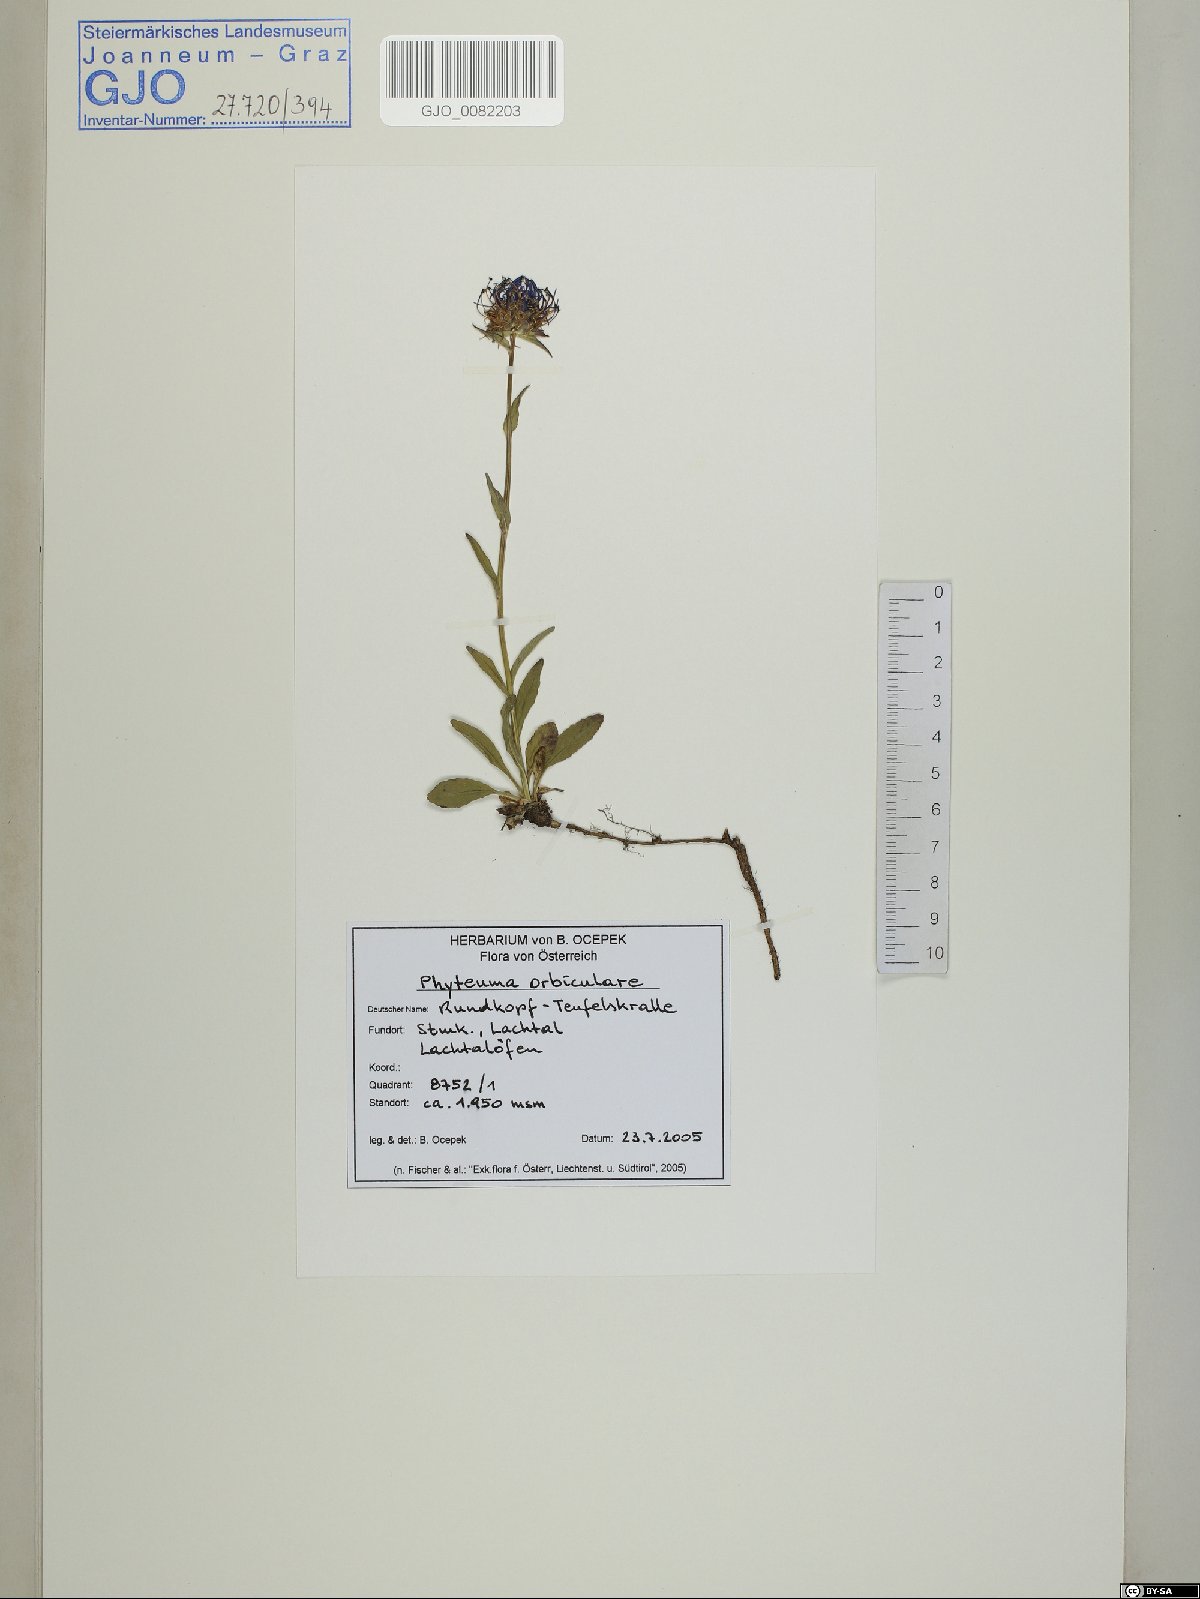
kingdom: Plantae
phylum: Tracheophyta
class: Magnoliopsida
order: Asterales
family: Campanulaceae
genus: Phyteuma
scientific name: Phyteuma orbiculare
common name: Round-headed rampion
